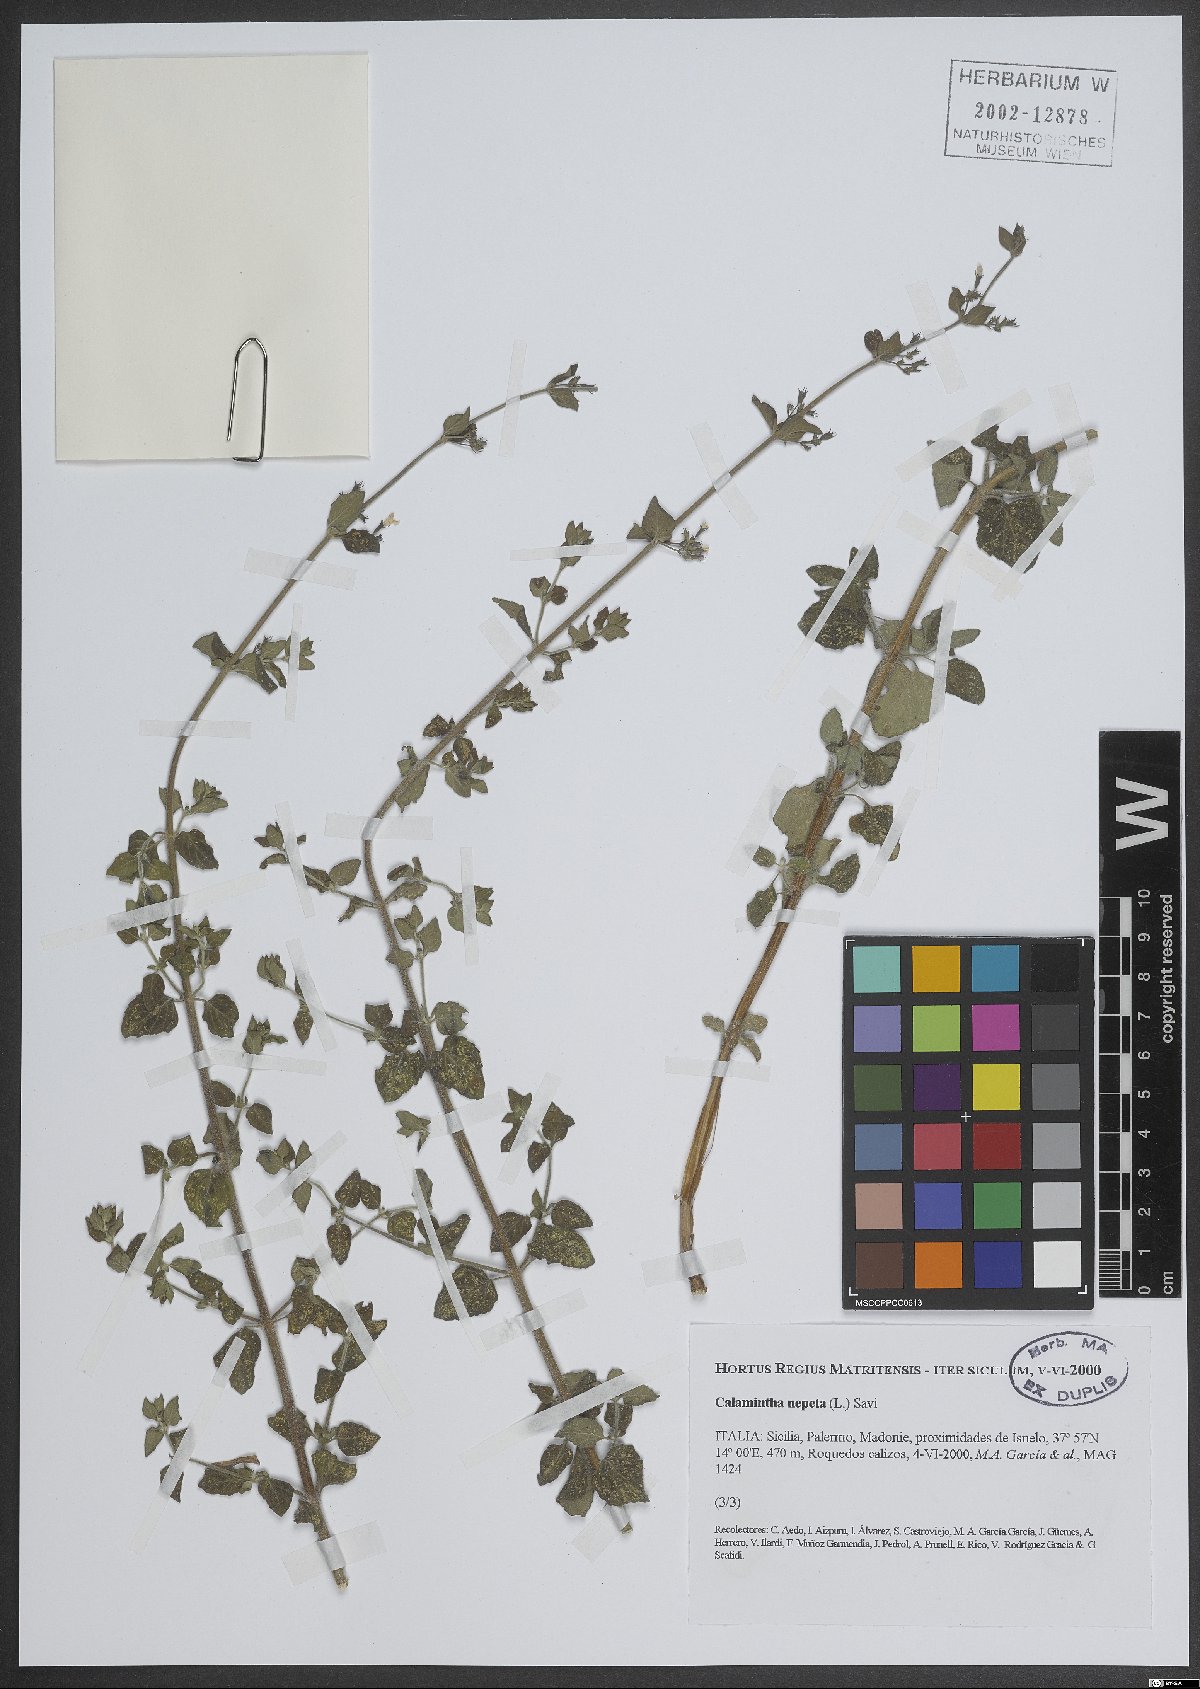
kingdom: Plantae
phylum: Tracheophyta
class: Magnoliopsida
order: Lamiales
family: Lamiaceae
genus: Clinopodium
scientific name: Clinopodium nepeta
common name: Lesser calamint
